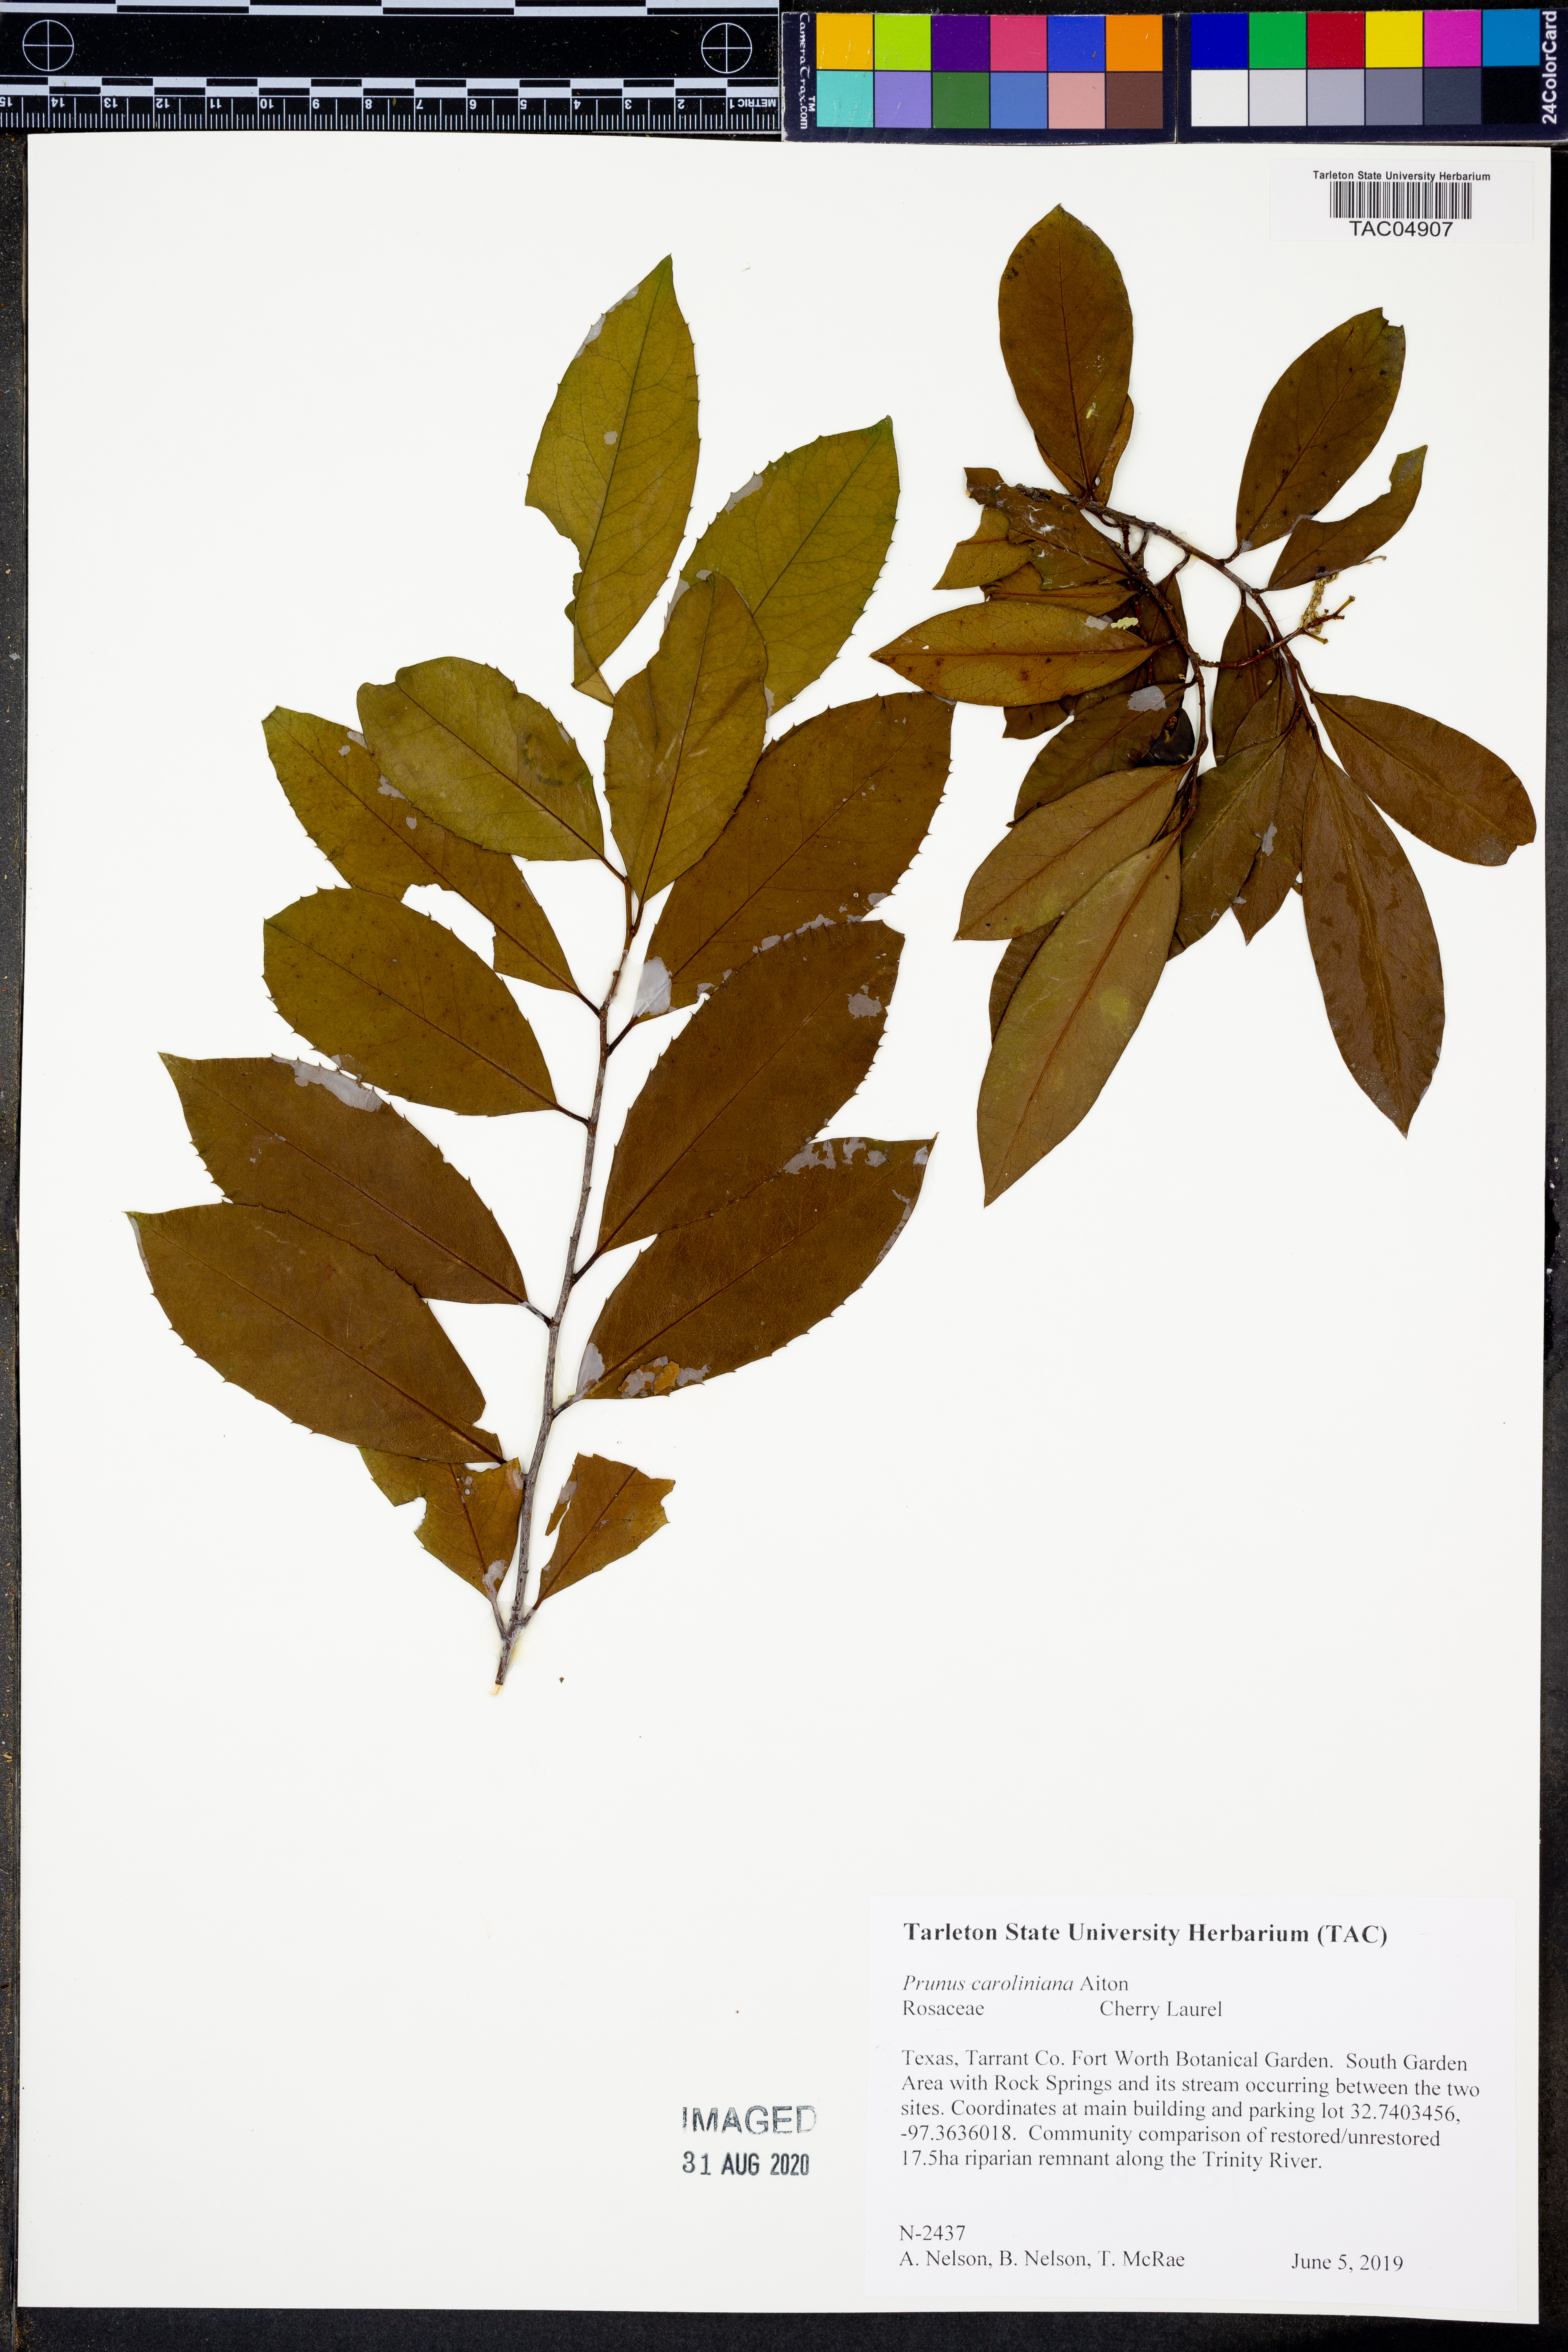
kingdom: Plantae
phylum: Tracheophyta
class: Magnoliopsida
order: Rosales
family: Rosaceae
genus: Prunus
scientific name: Prunus caroliniana
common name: Carolina laurel cherry
